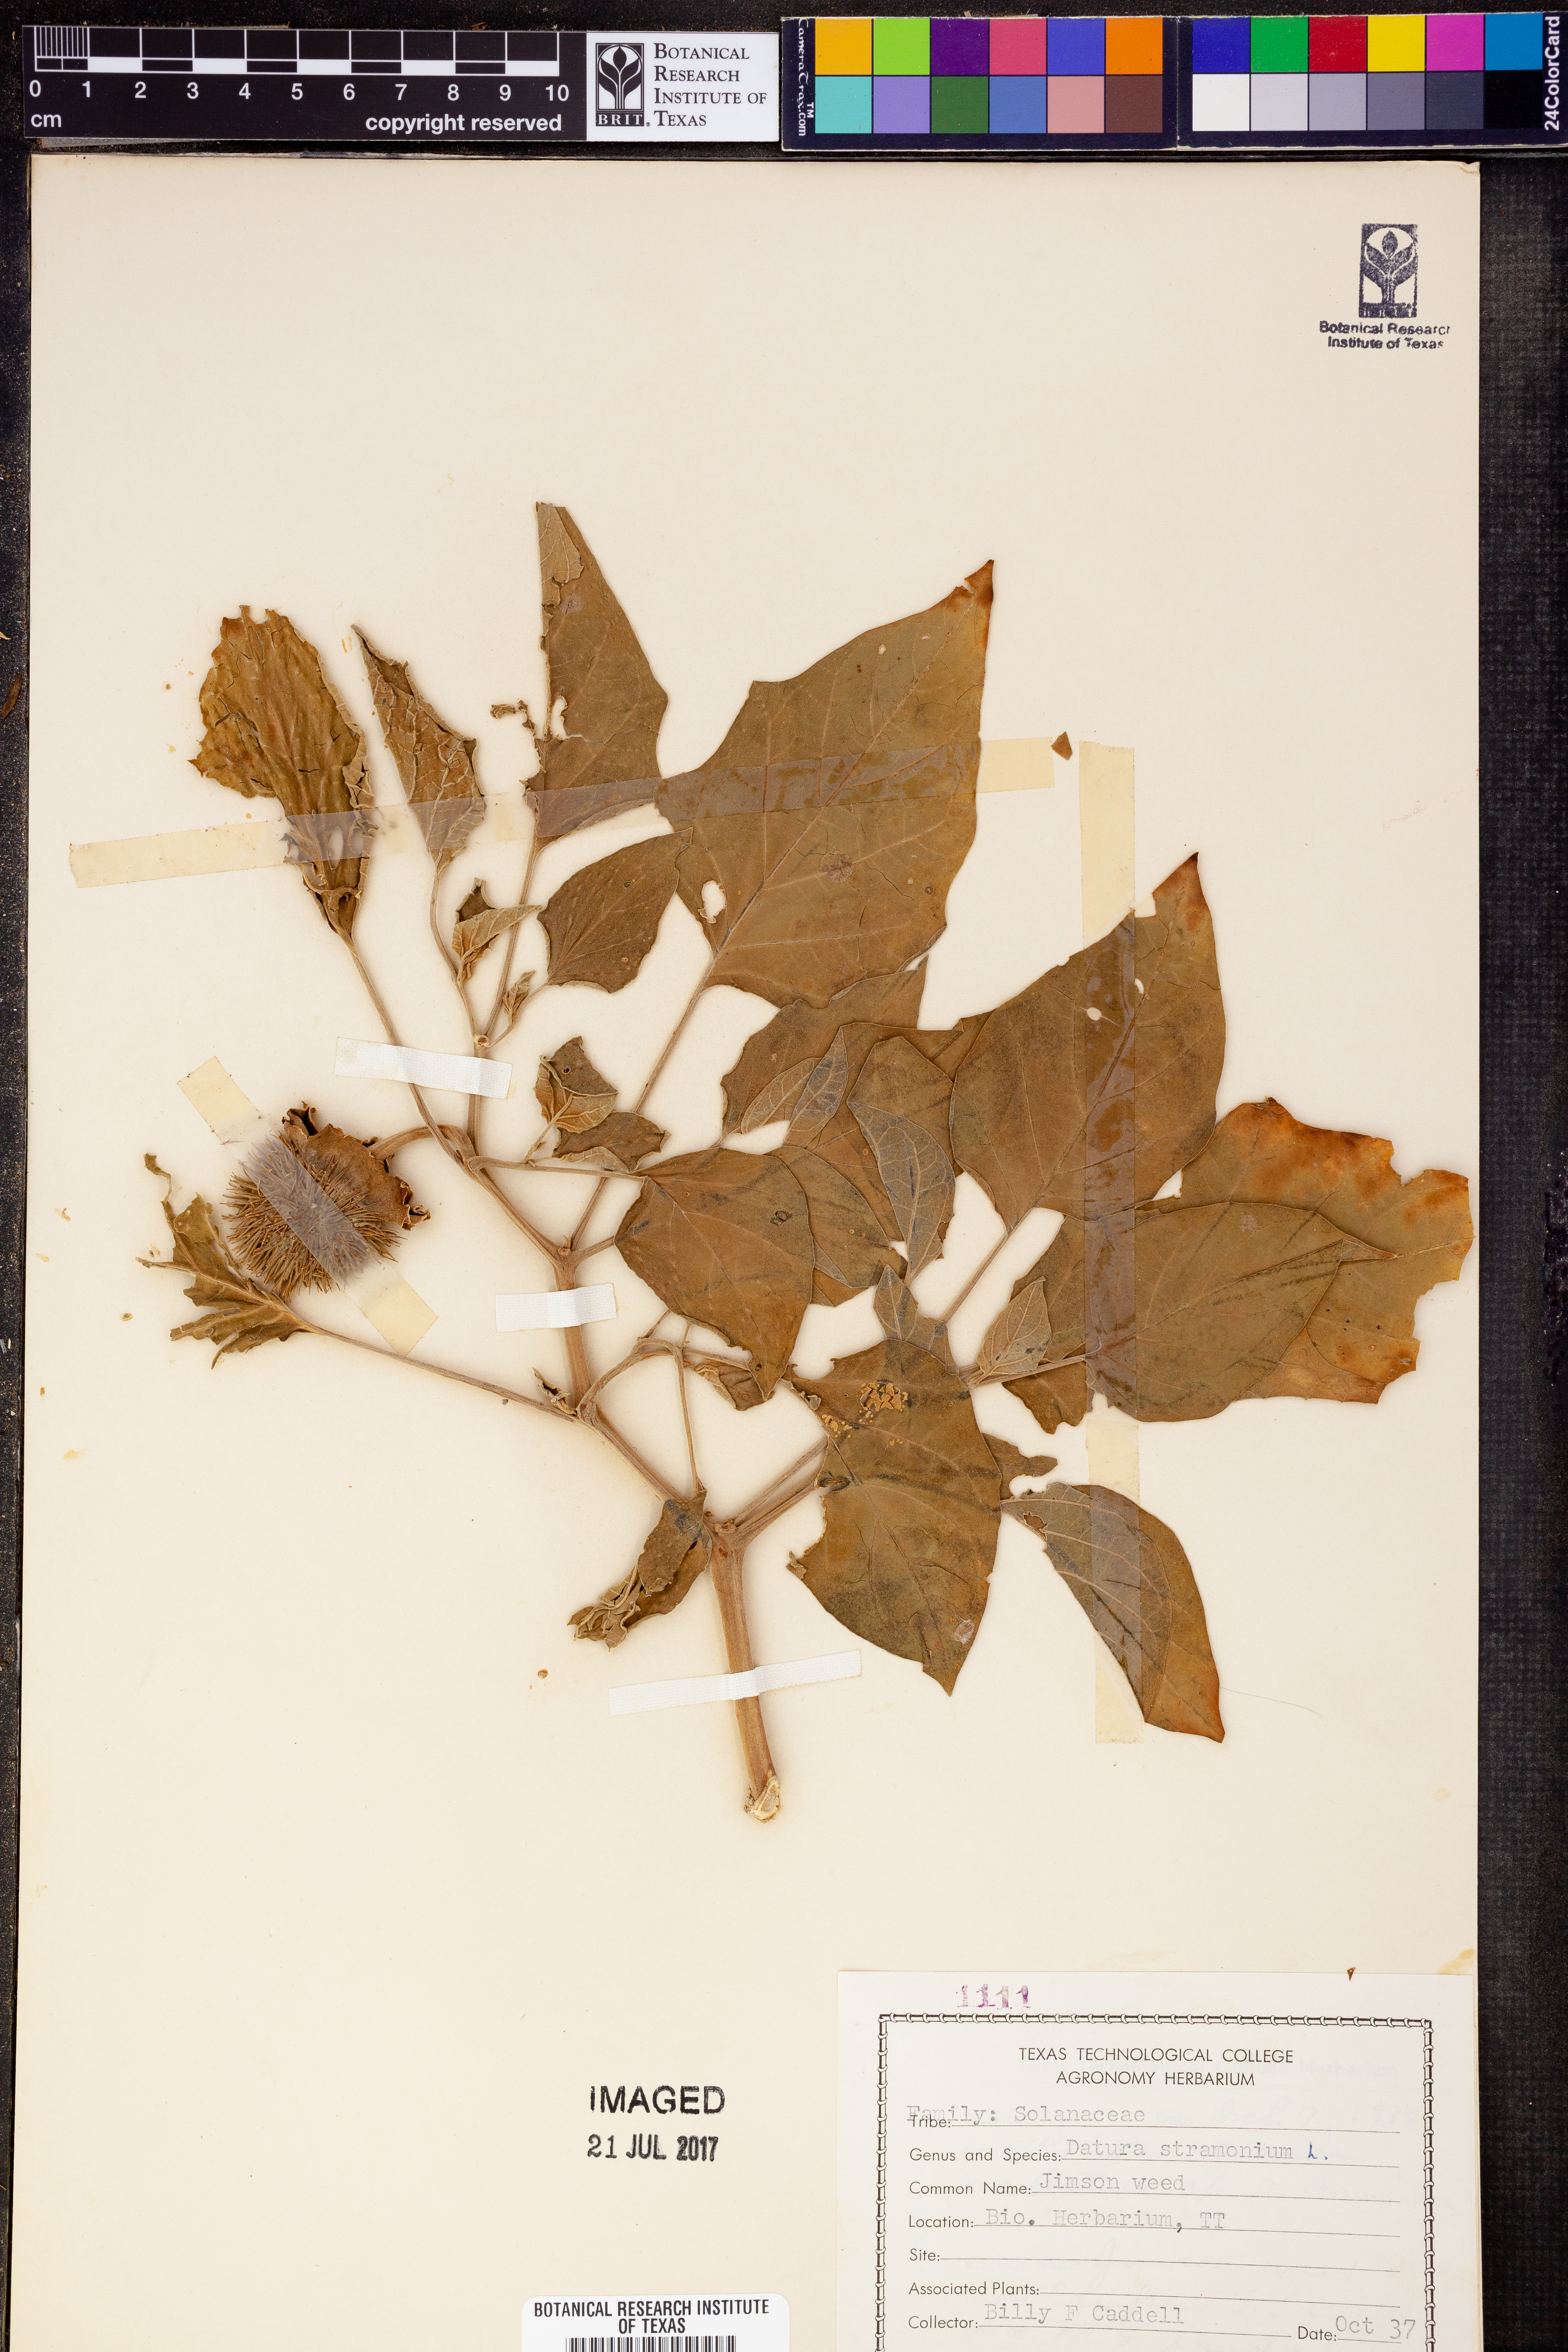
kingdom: Plantae
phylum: Tracheophyta
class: Magnoliopsida
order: Solanales
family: Solanaceae
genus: Datura
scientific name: Datura stramonium
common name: Thorn-apple
